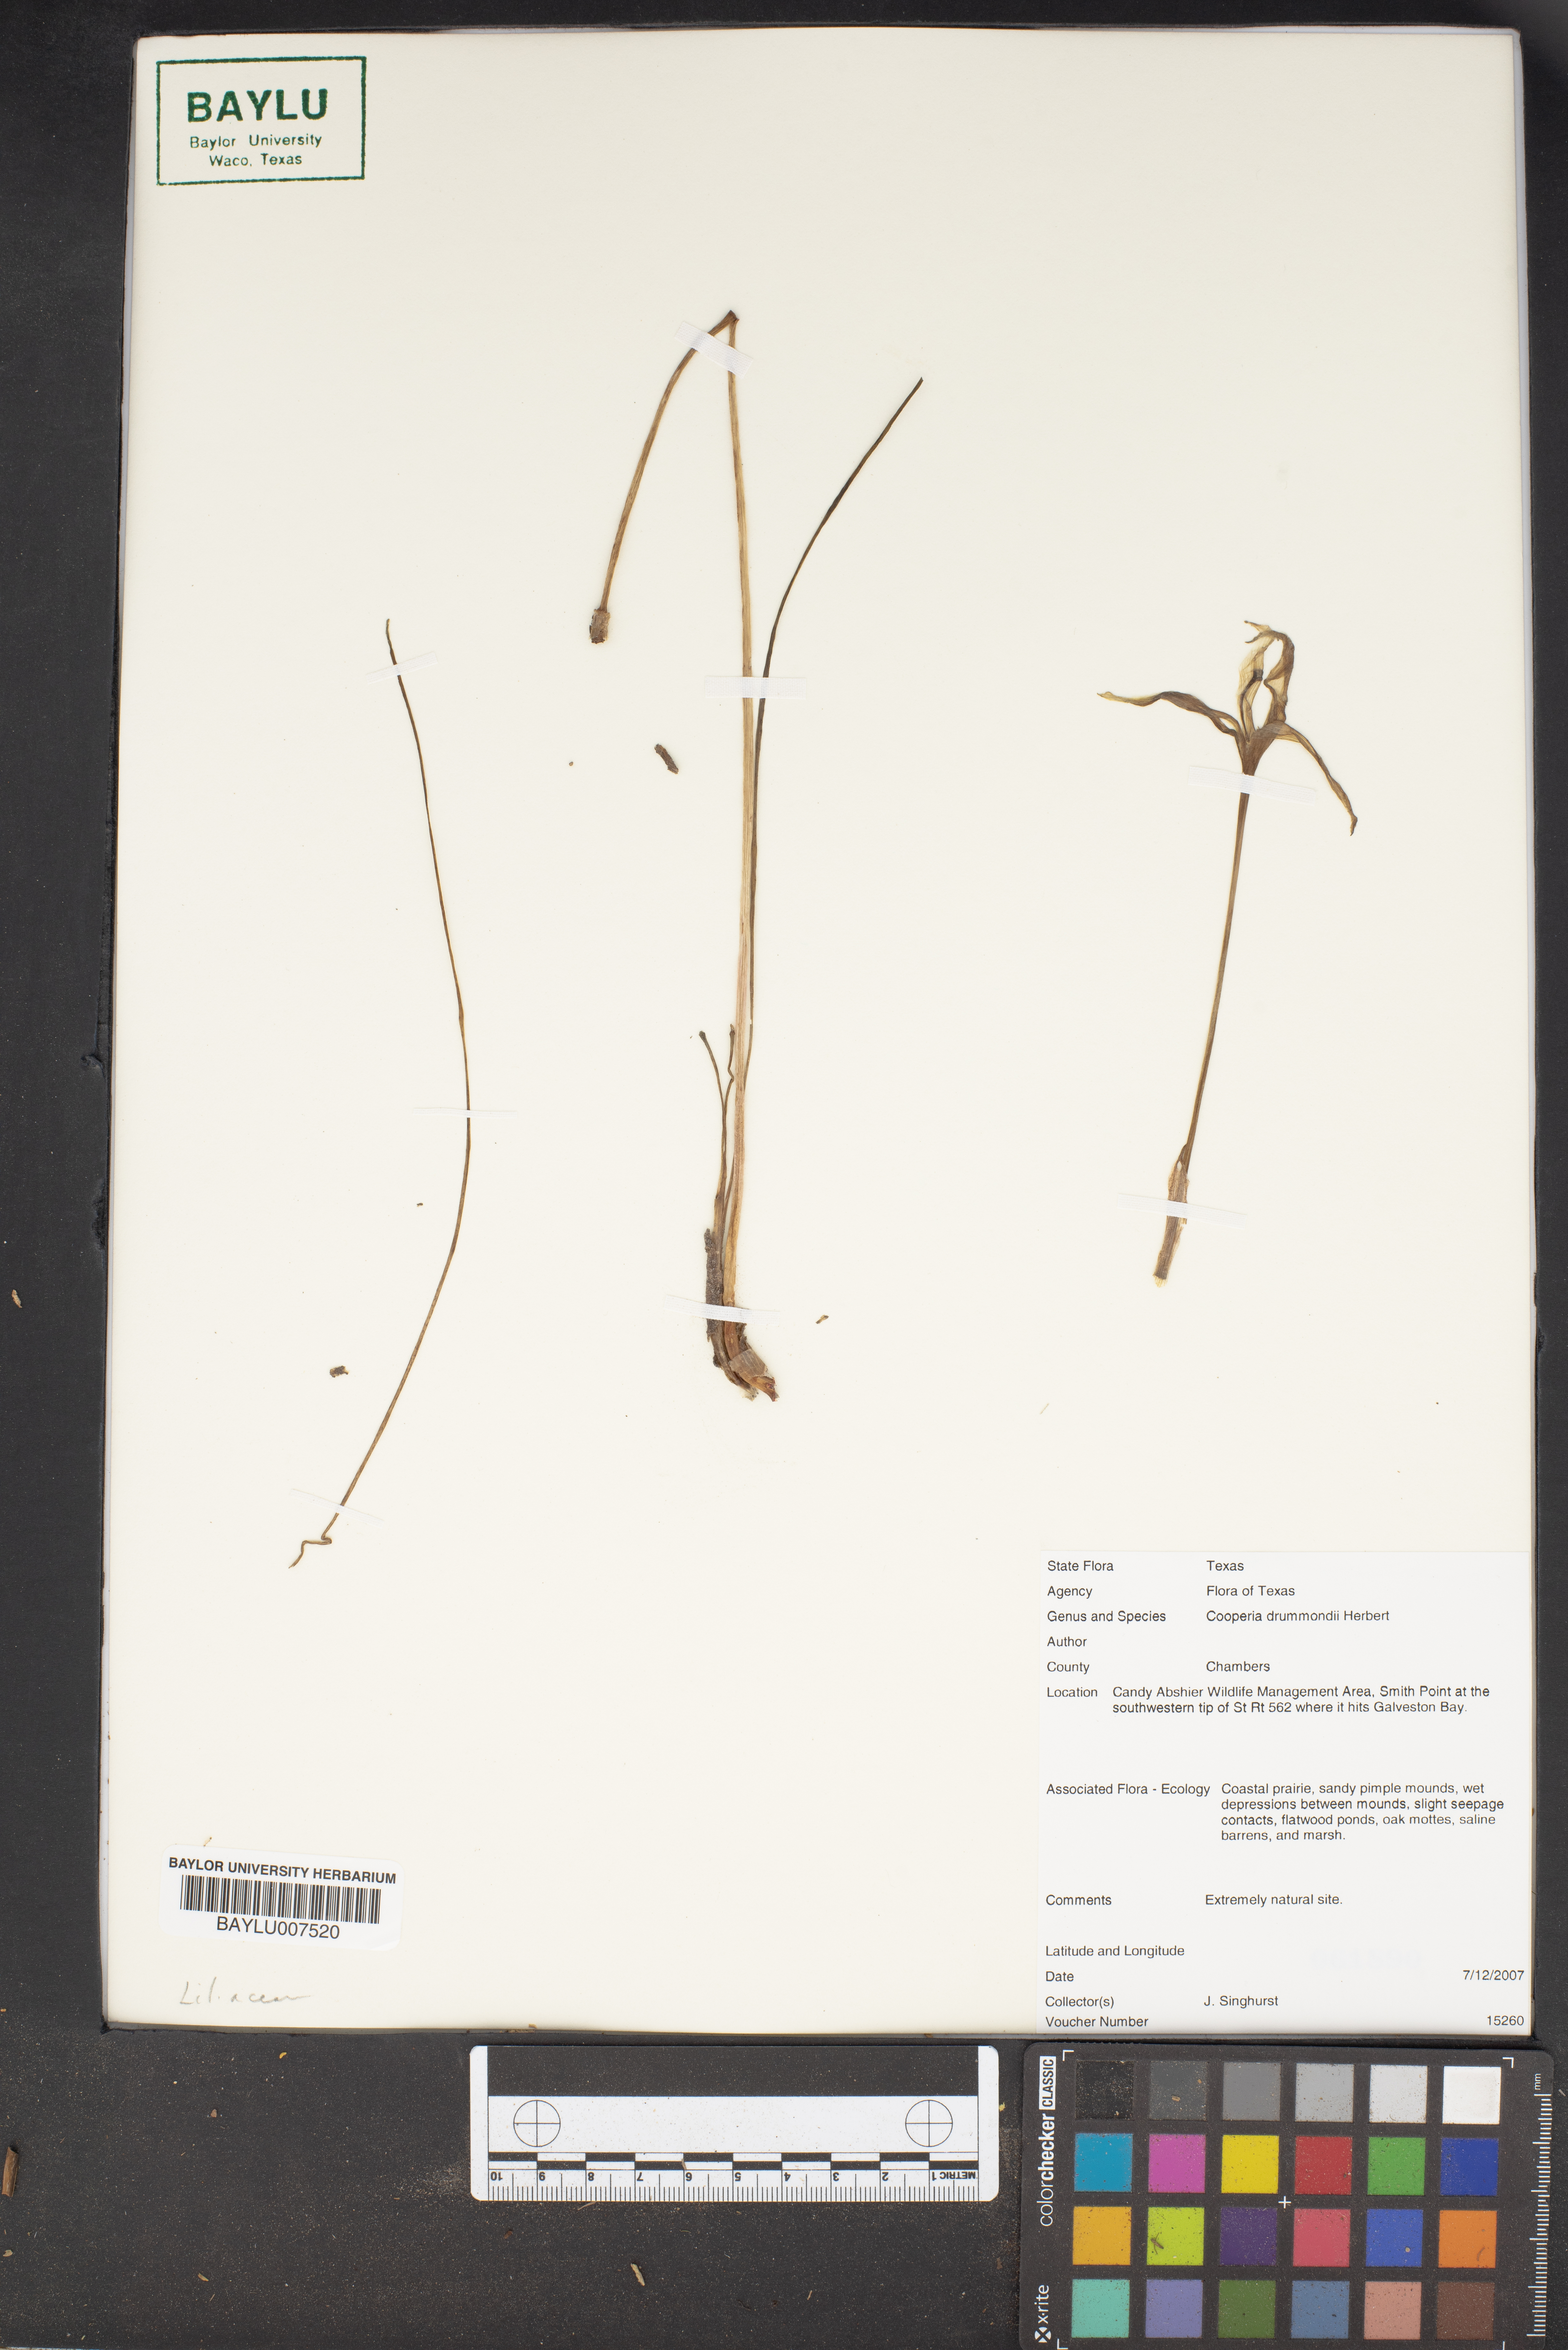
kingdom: Plantae
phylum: Tracheophyta
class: Liliopsida
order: Asparagales
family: Amaryllidaceae
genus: Zephyranthes
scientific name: Zephyranthes chlorosolen
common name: Evening rain-lily
